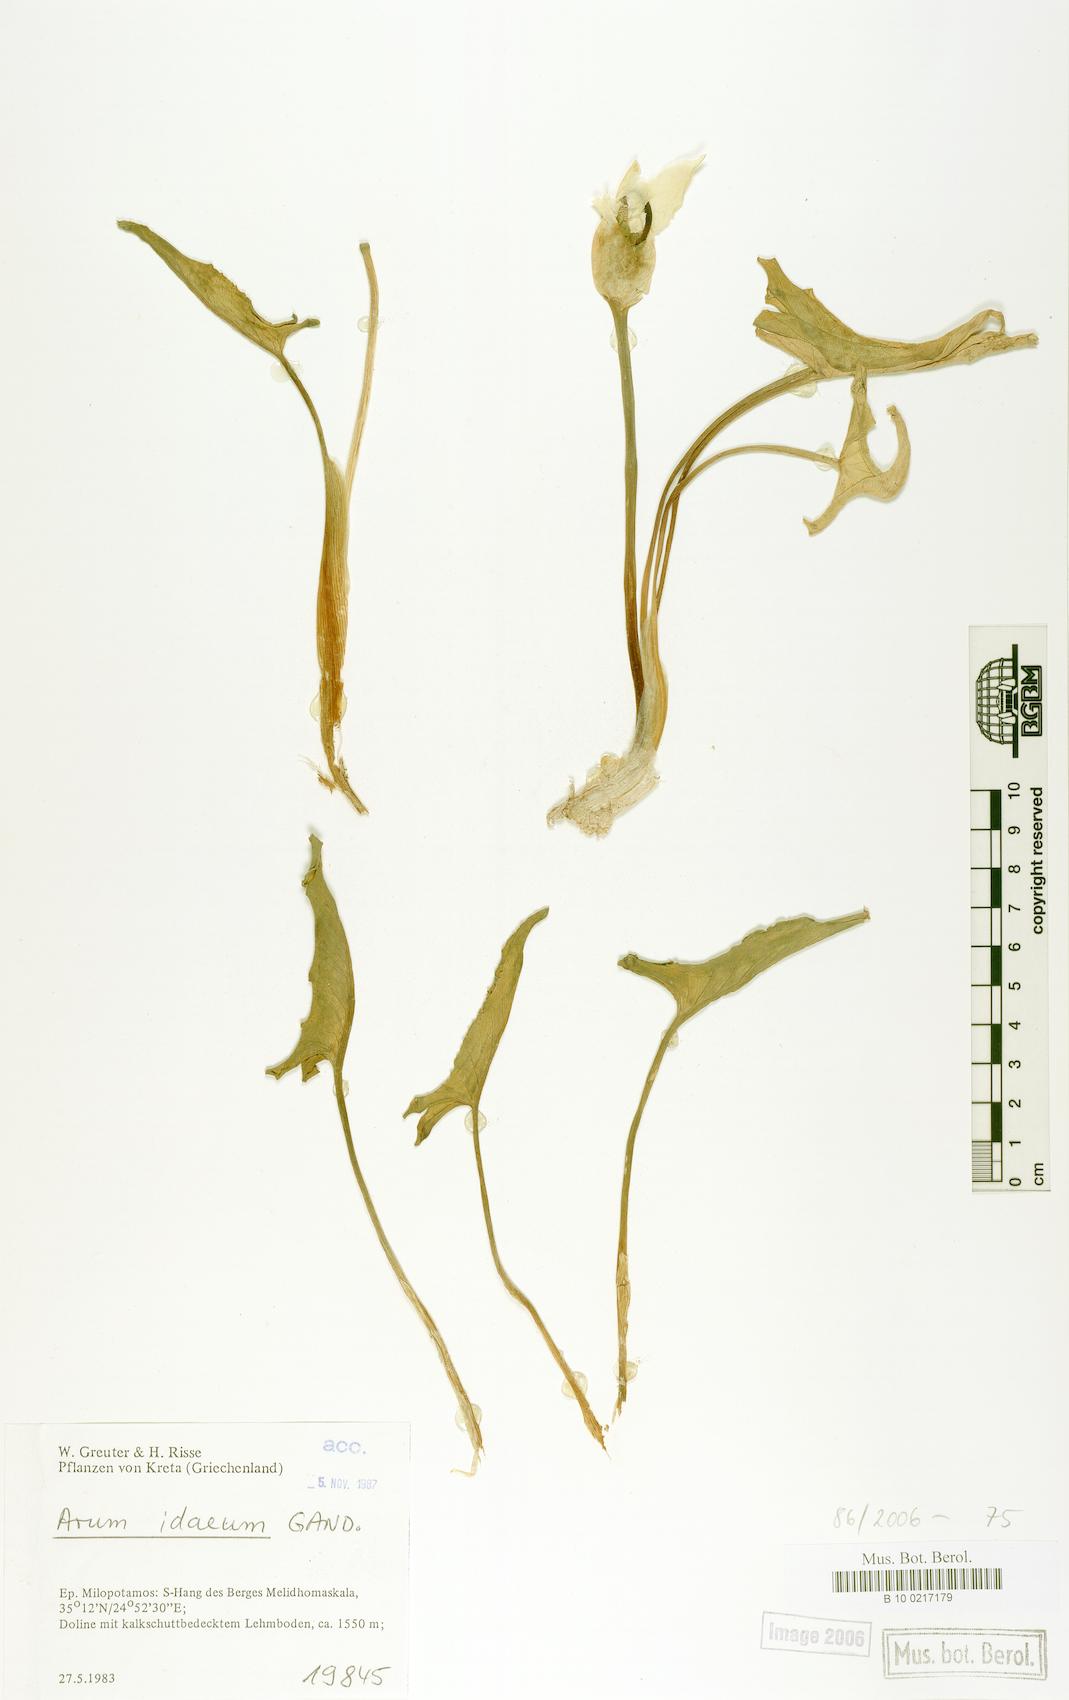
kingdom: Plantae
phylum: Tracheophyta
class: Liliopsida
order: Alismatales
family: Araceae
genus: Arum
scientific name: Arum idaeum
